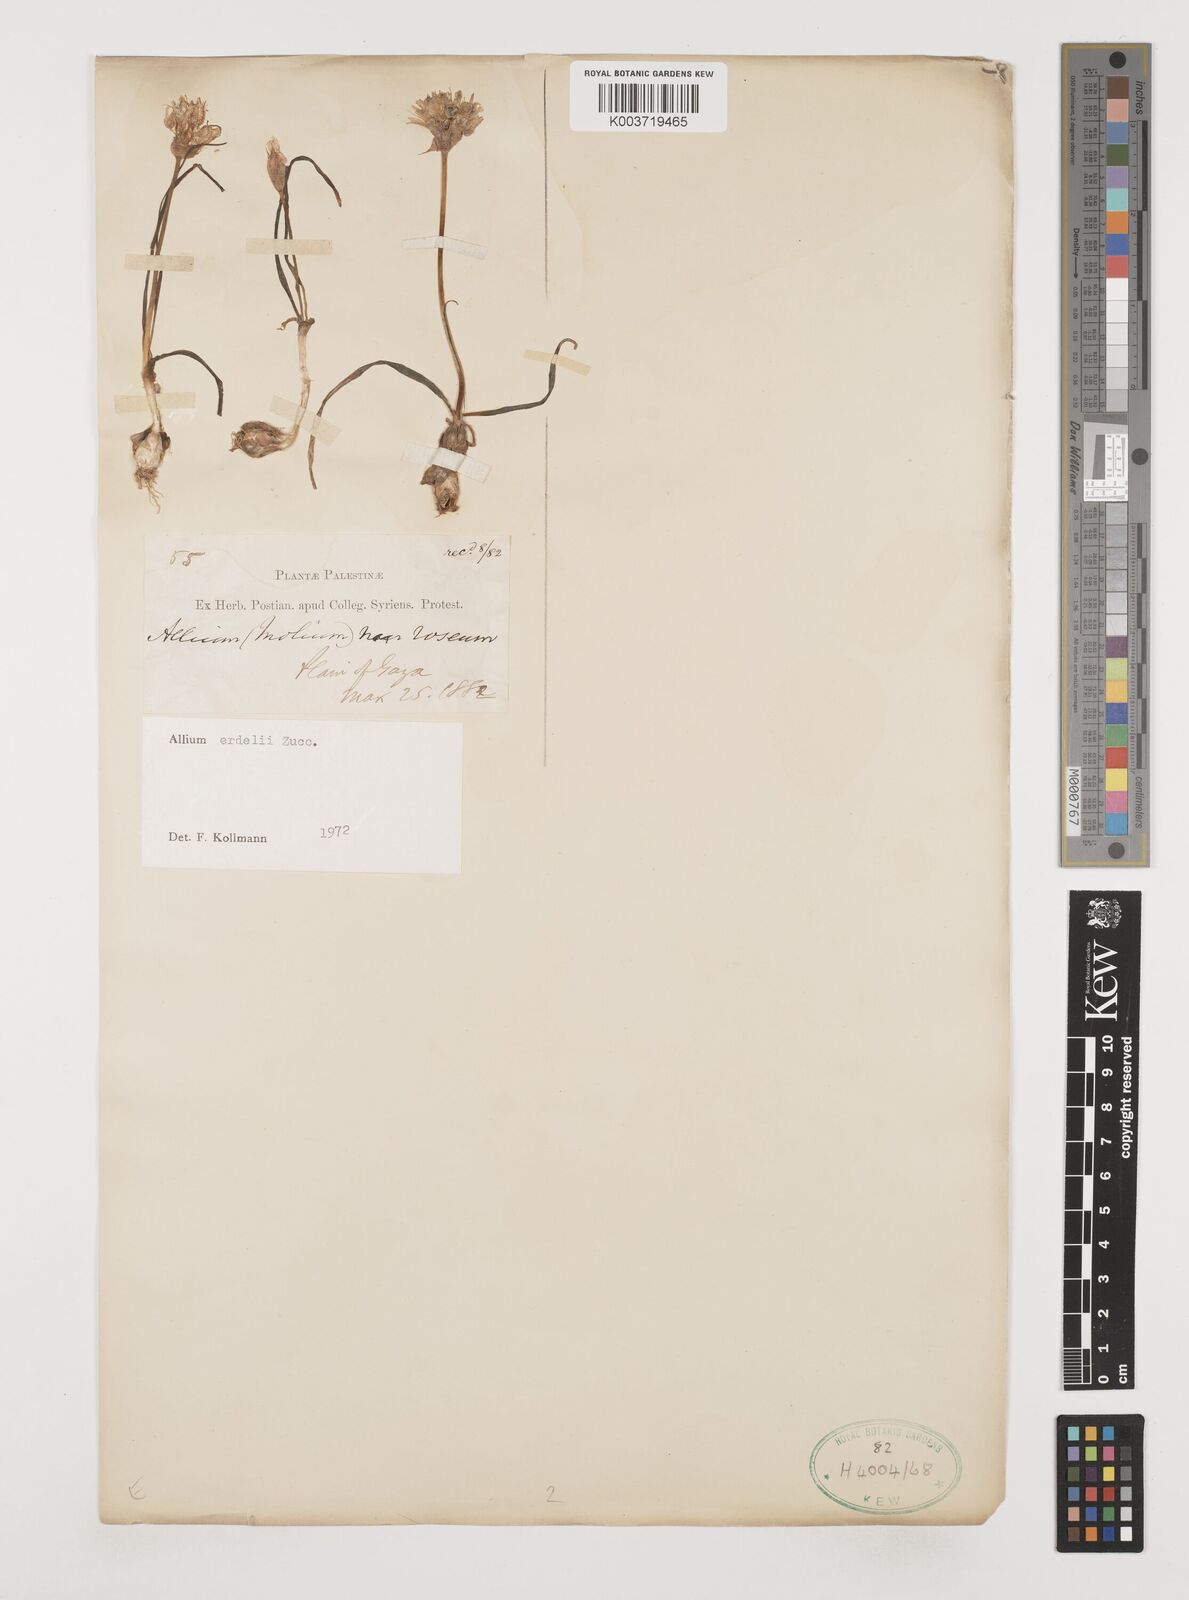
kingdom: Plantae
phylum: Tracheophyta
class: Liliopsida
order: Asparagales
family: Amaryllidaceae
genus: Allium
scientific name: Allium erdelii
